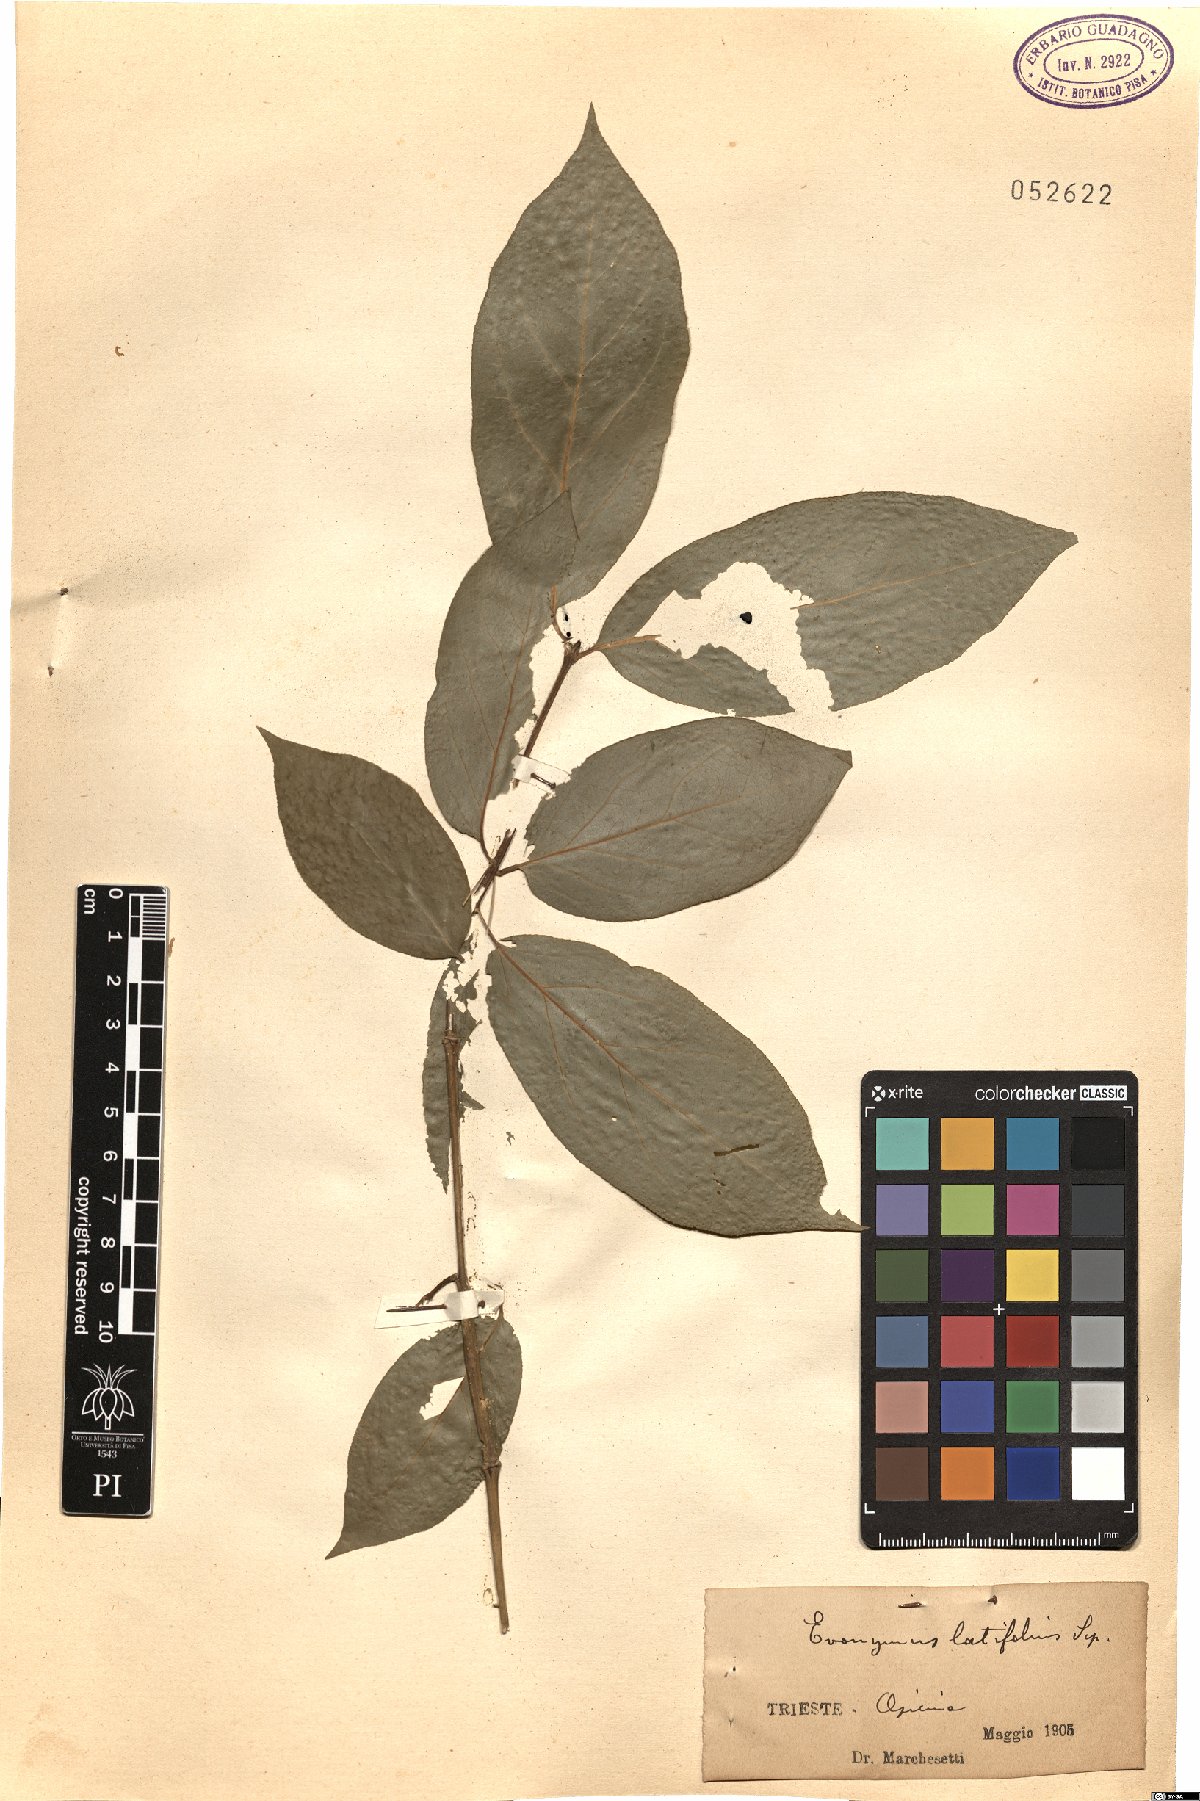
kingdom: Plantae
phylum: Tracheophyta
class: Magnoliopsida
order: Celastrales
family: Celastraceae
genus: Euonymus
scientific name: Euonymus latifolius
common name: Large-leaved spindle
